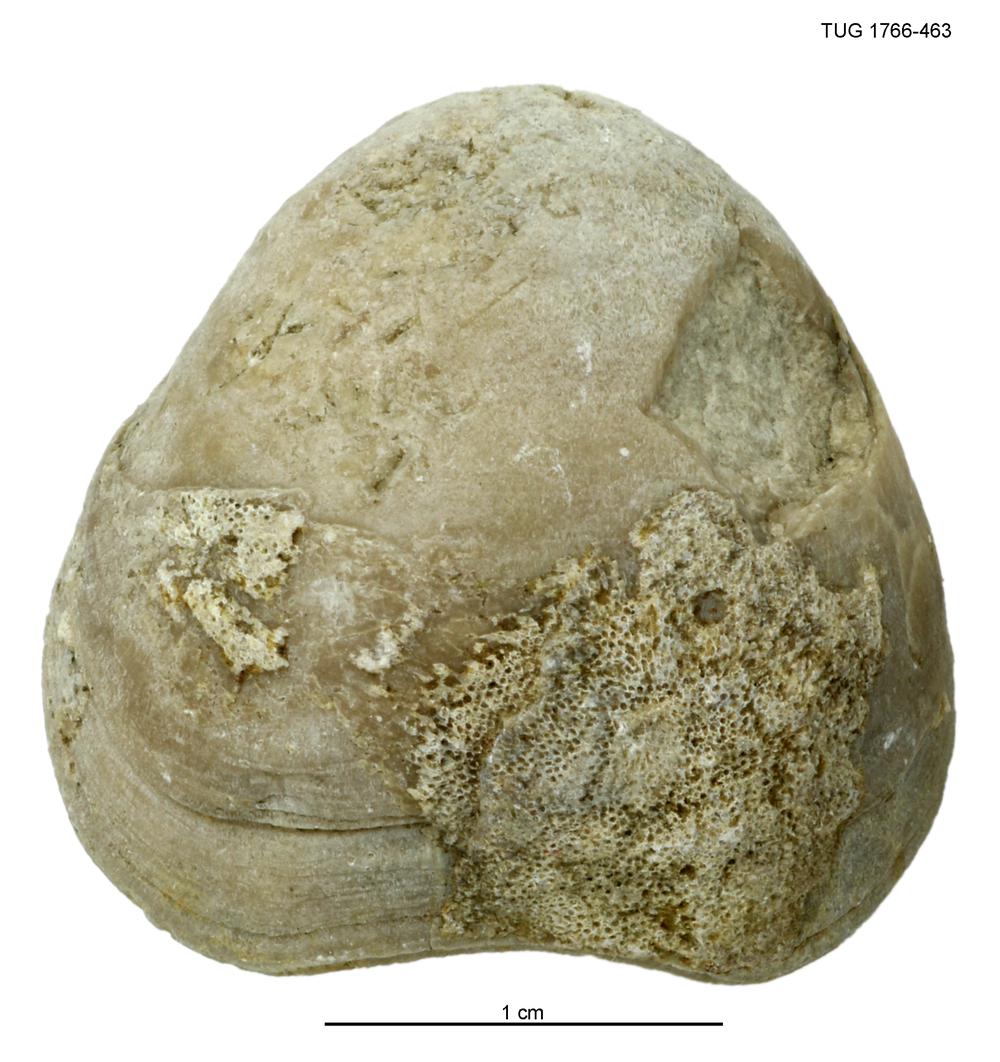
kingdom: Animalia
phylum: Brachiopoda
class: Rhynchonellata
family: Porambonitidae
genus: Porambonites
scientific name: Porambonites
